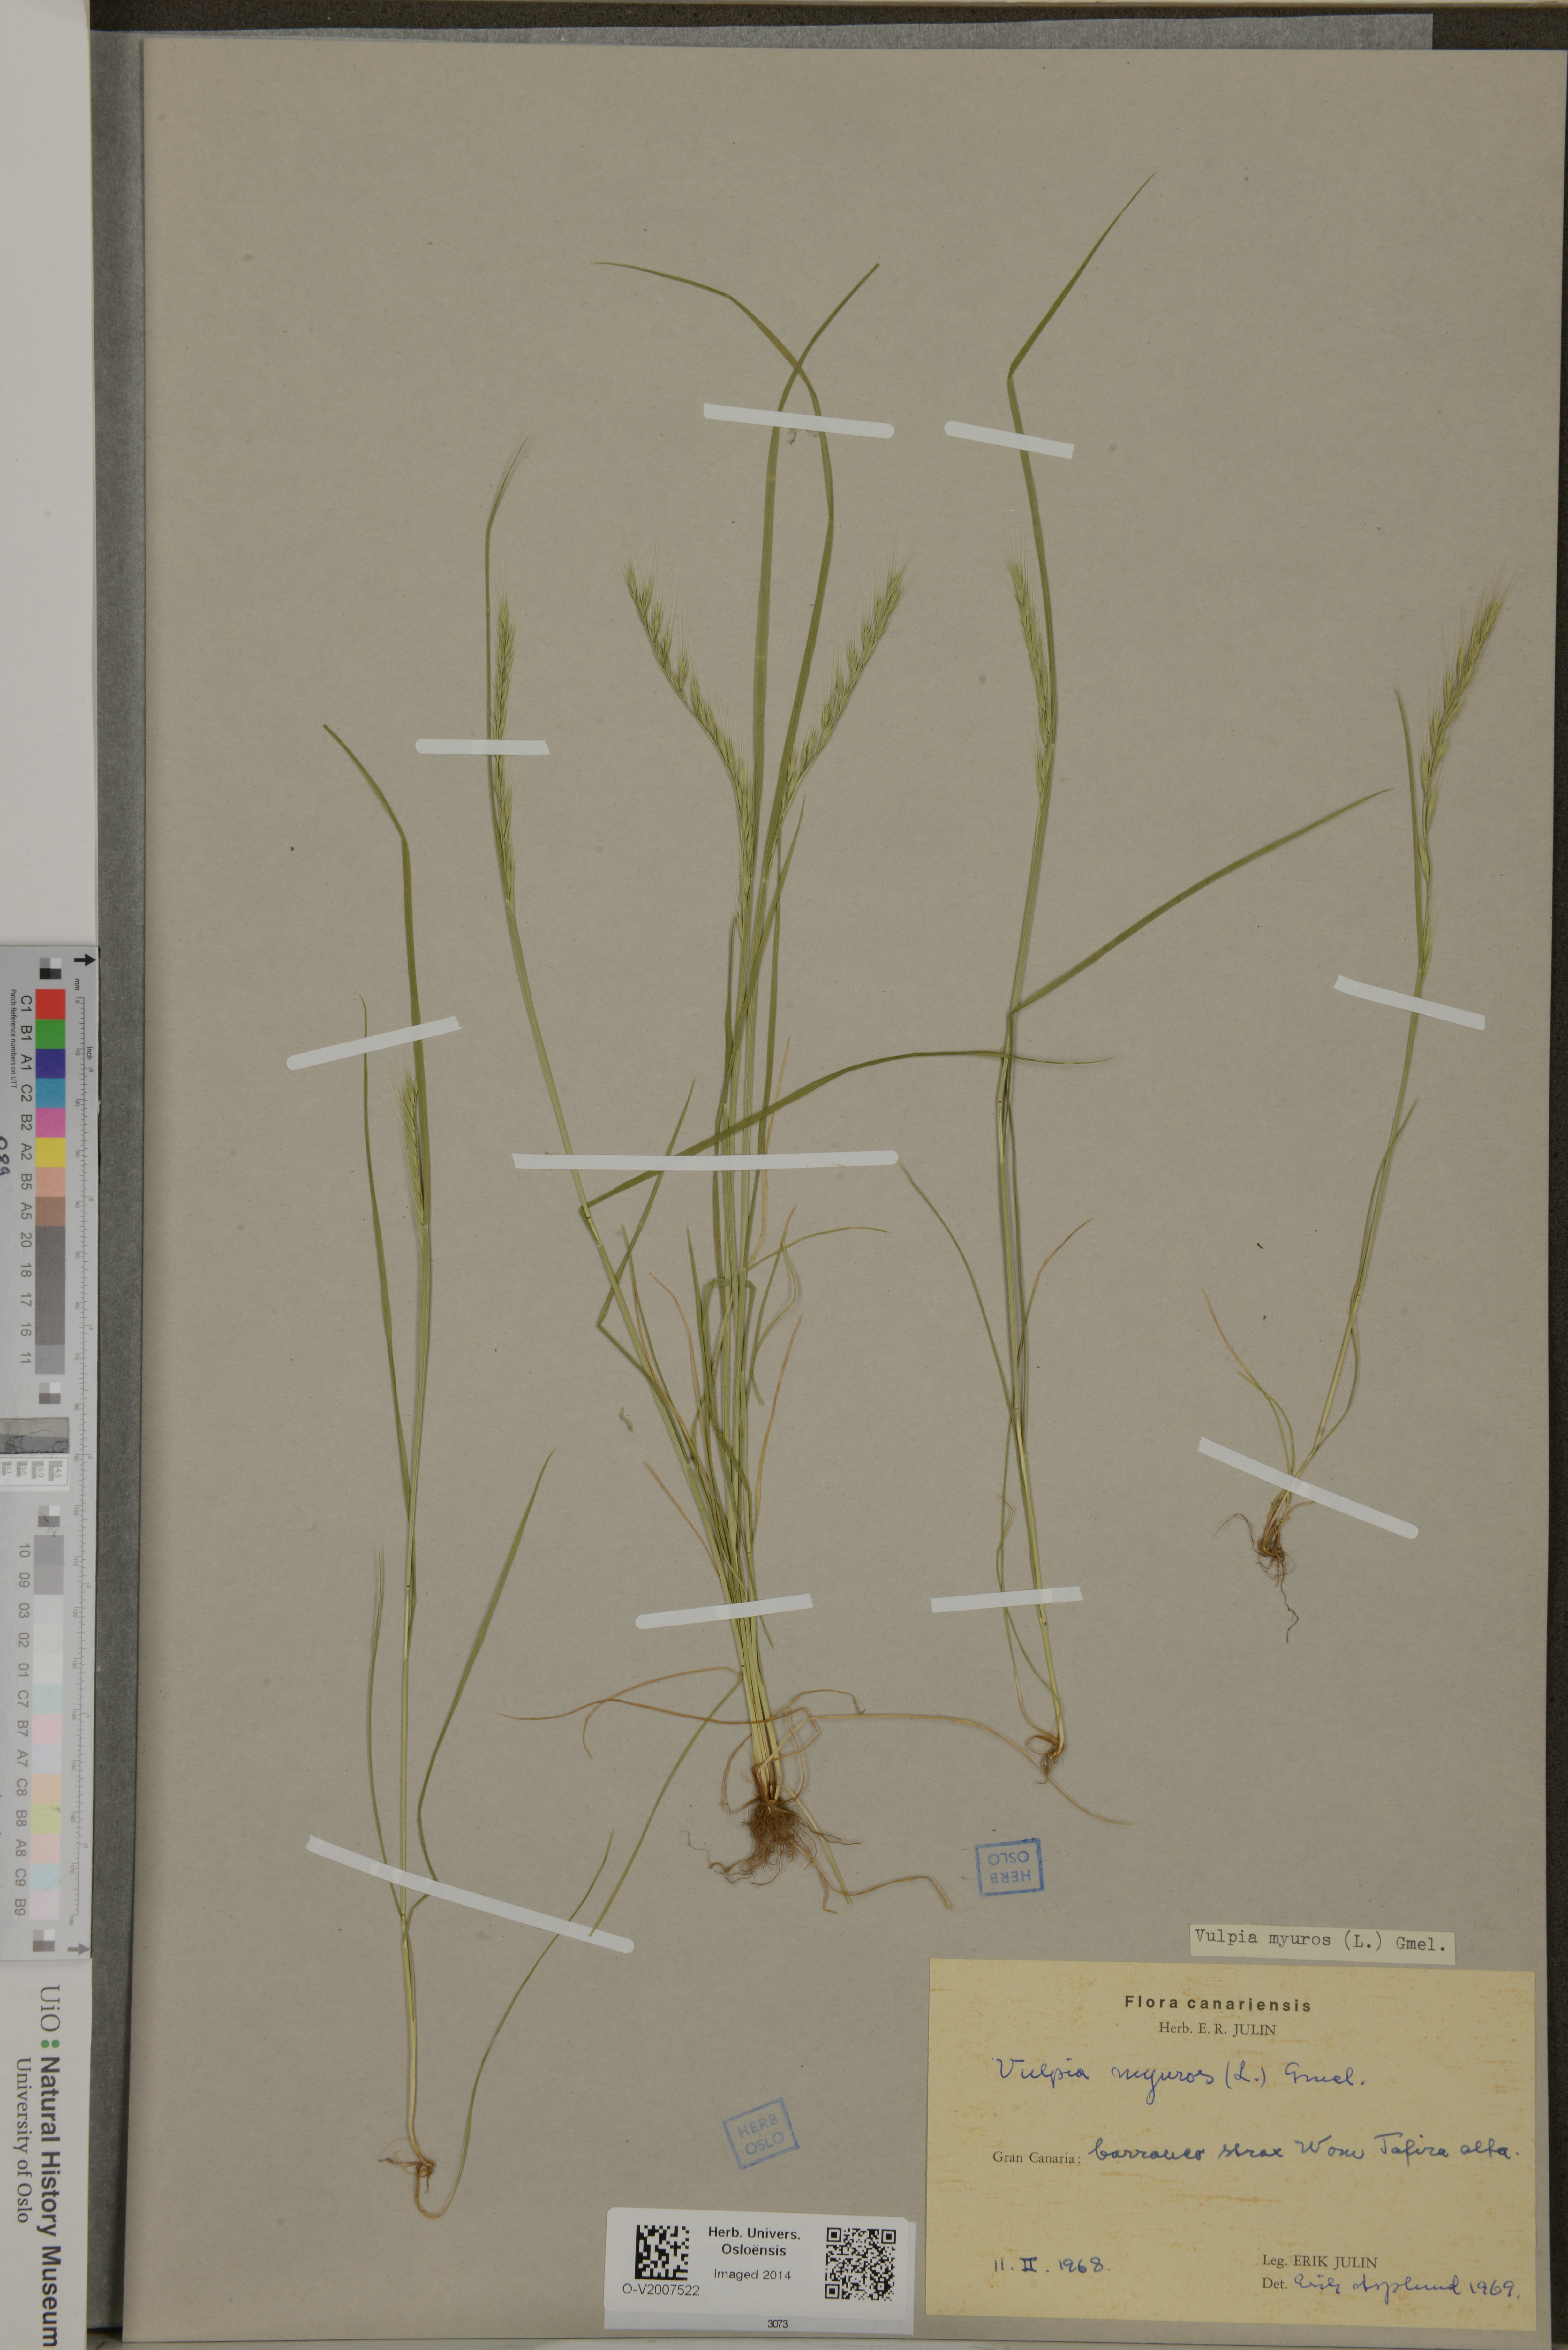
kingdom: Plantae
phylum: Tracheophyta
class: Liliopsida
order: Poales
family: Poaceae
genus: Festuca
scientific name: Festuca myuros
